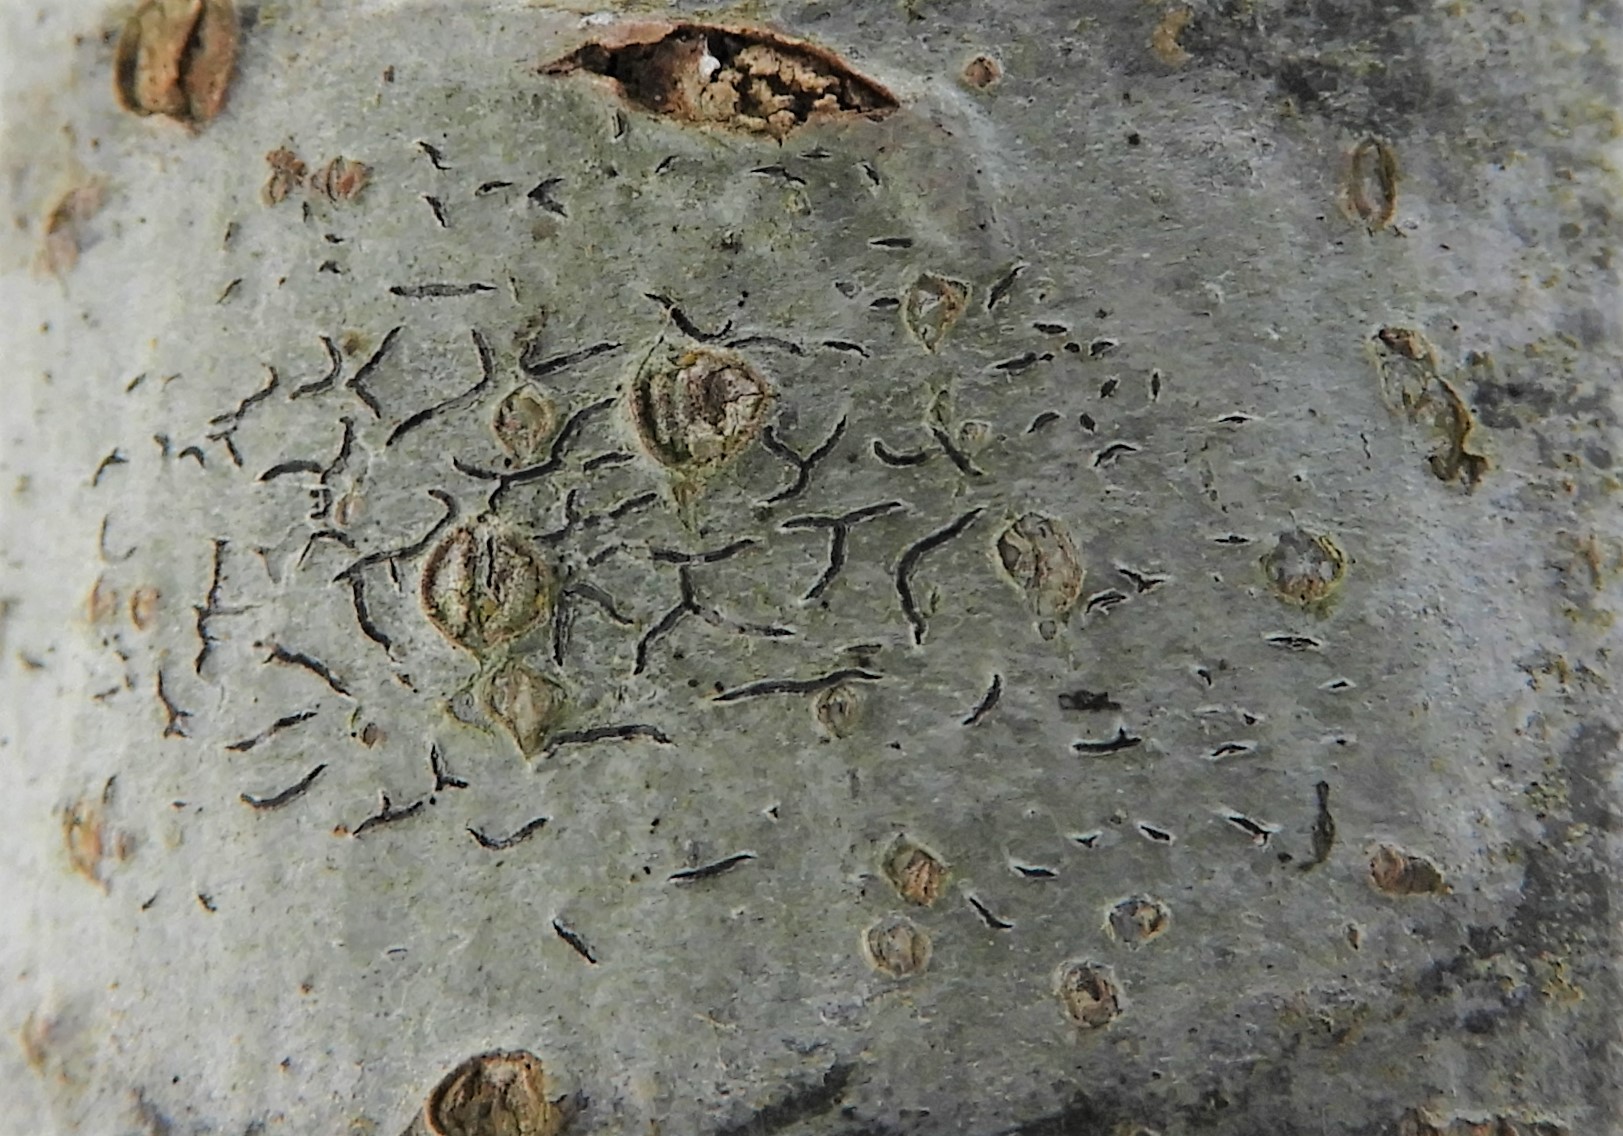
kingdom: Fungi
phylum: Ascomycota
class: Lecanoromycetes
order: Ostropales
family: Graphidaceae
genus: Graphis
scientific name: Graphis scripta
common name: almindelig skriftlav
